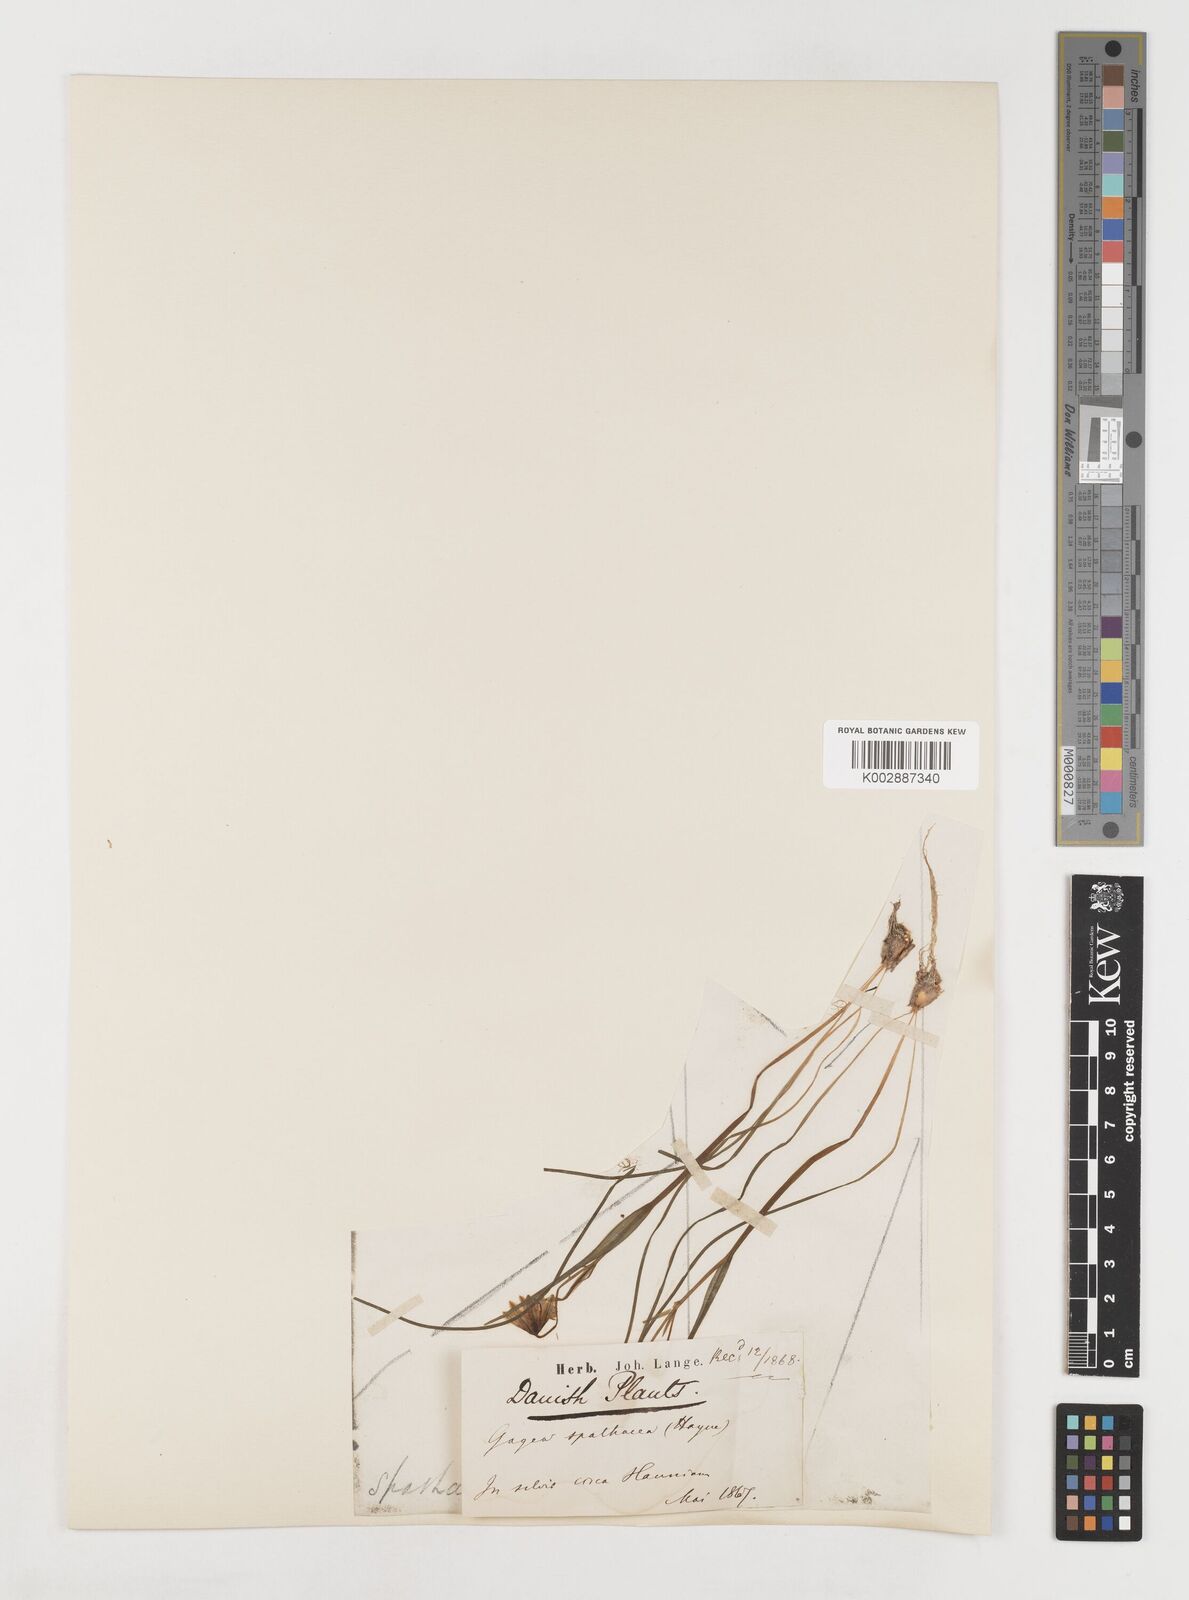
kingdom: Plantae
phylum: Tracheophyta
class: Liliopsida
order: Liliales
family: Liliaceae
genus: Gagea
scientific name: Gagea spathacea
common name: Belgian gagea
